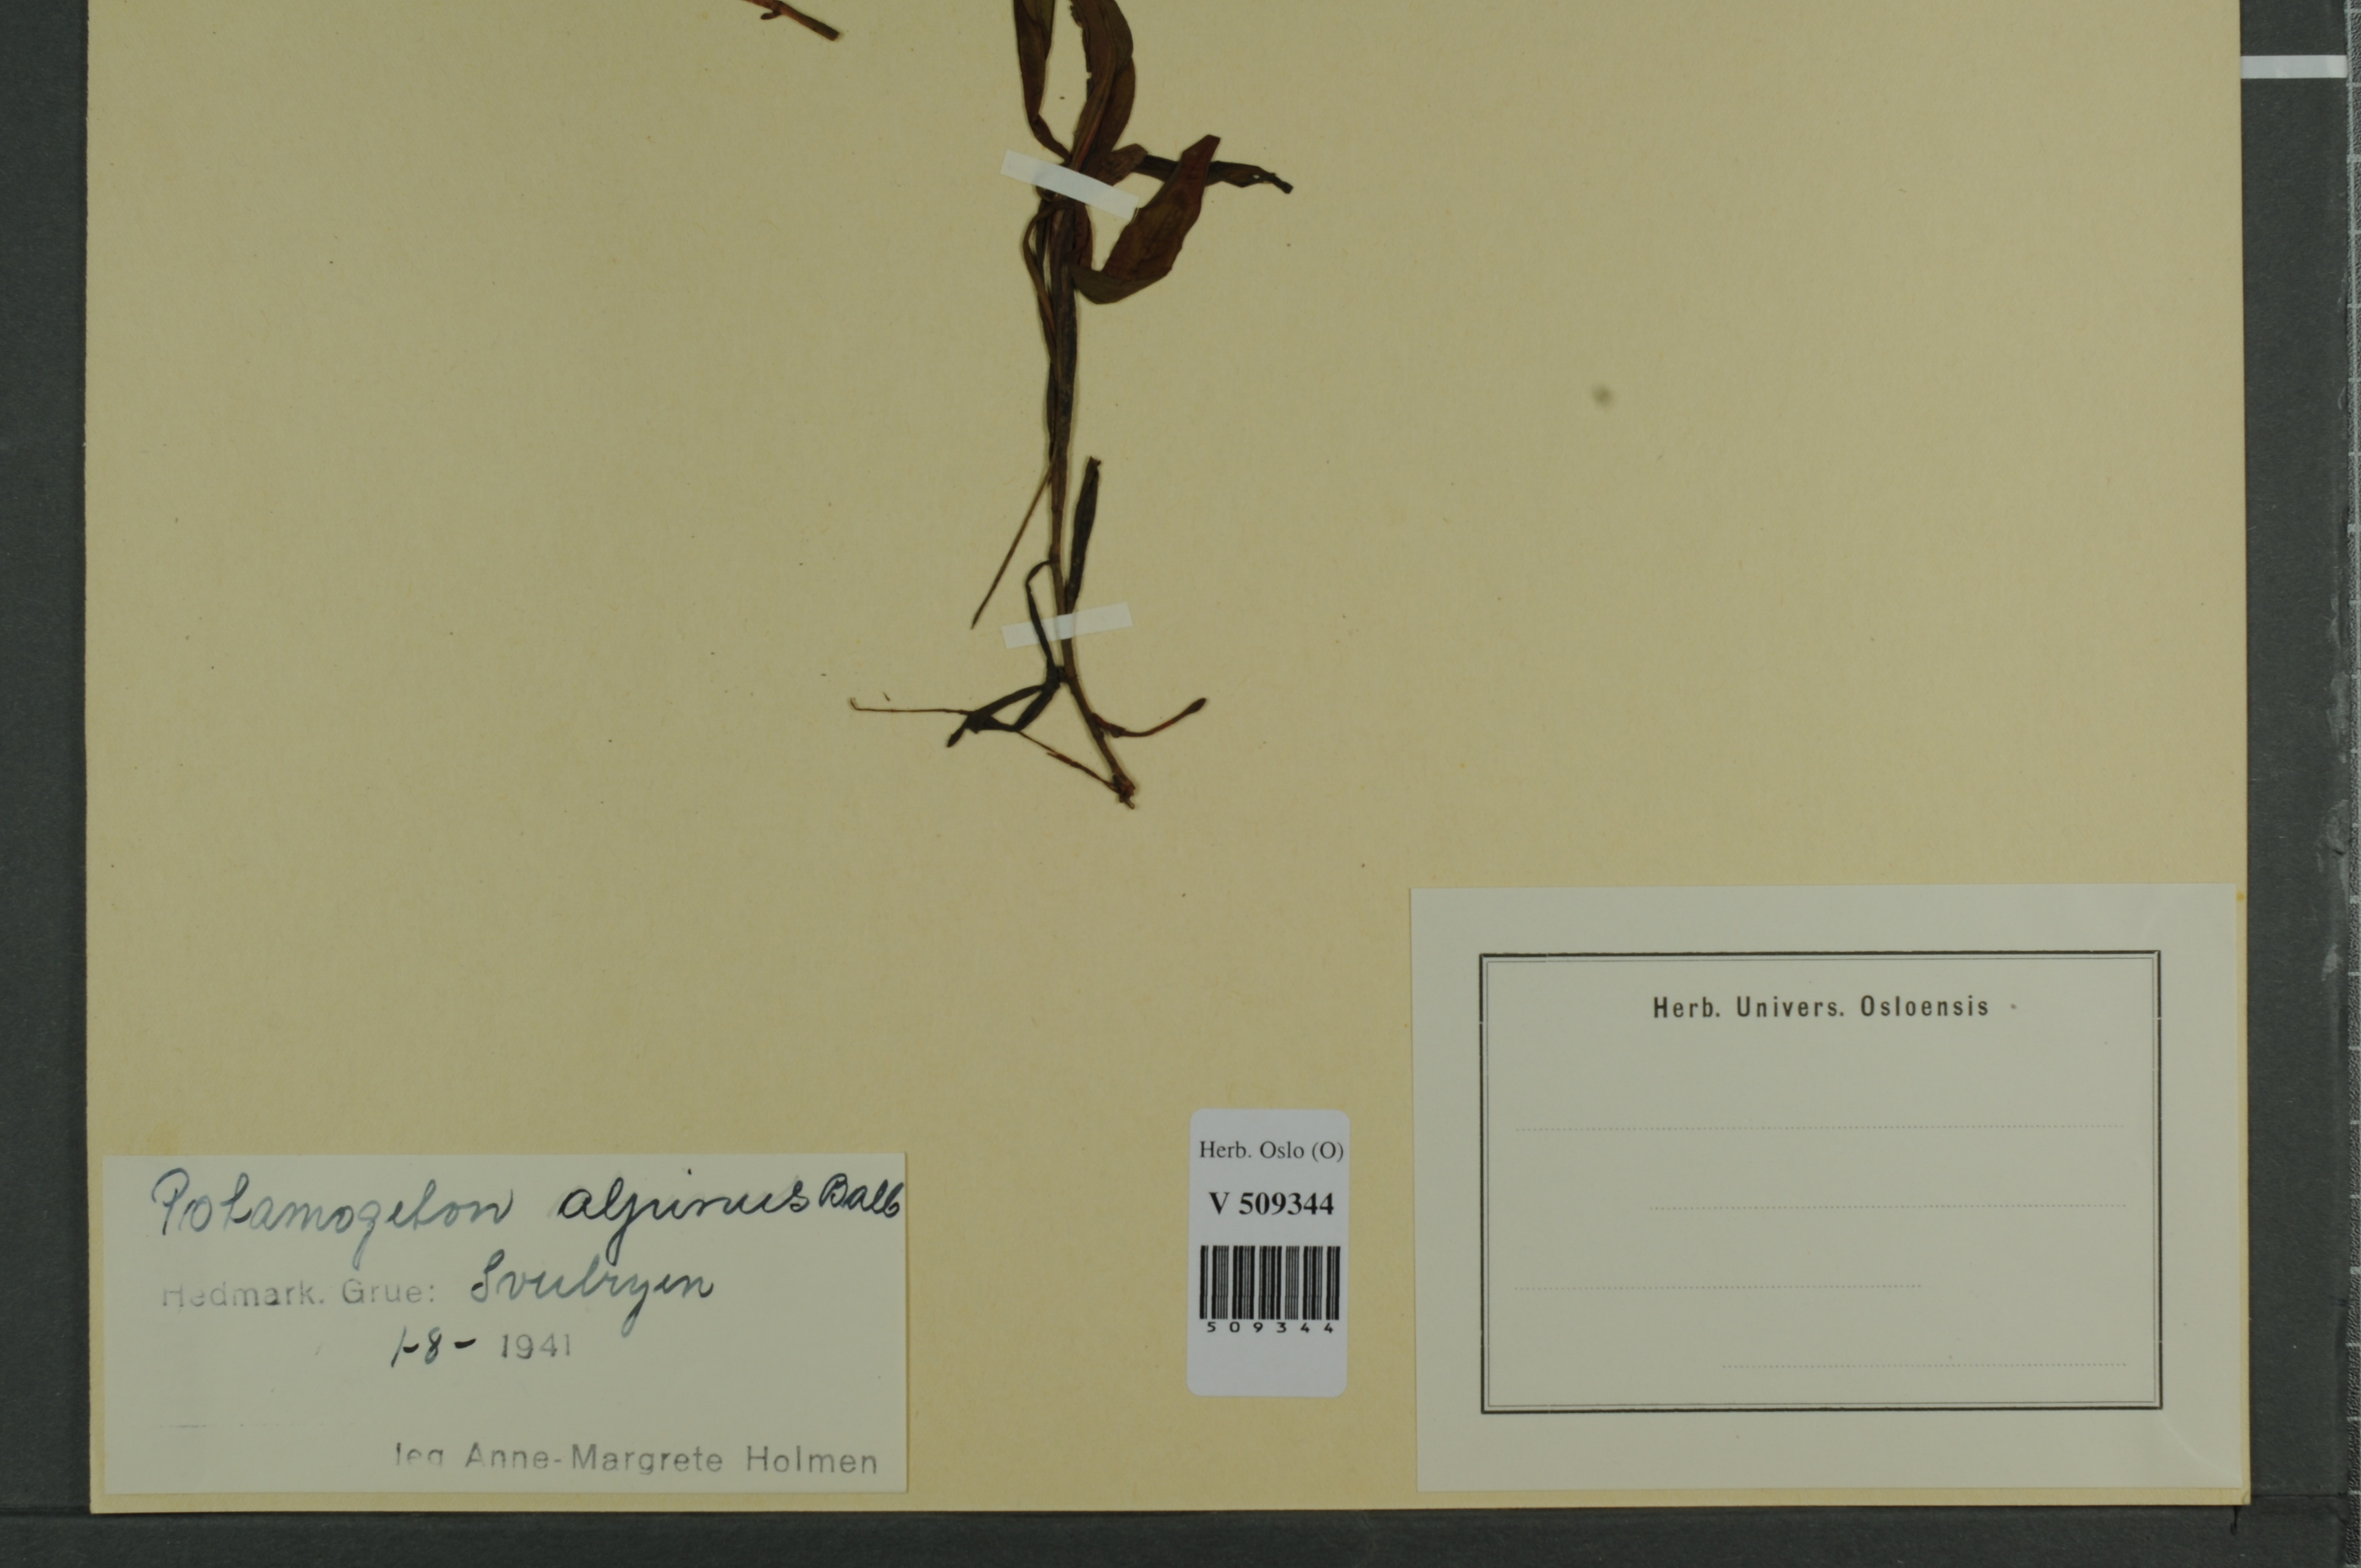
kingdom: Plantae
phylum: Tracheophyta
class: Liliopsida
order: Alismatales
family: Potamogetonaceae
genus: Potamogeton
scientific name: Potamogeton alpinus
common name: Red pondweed
